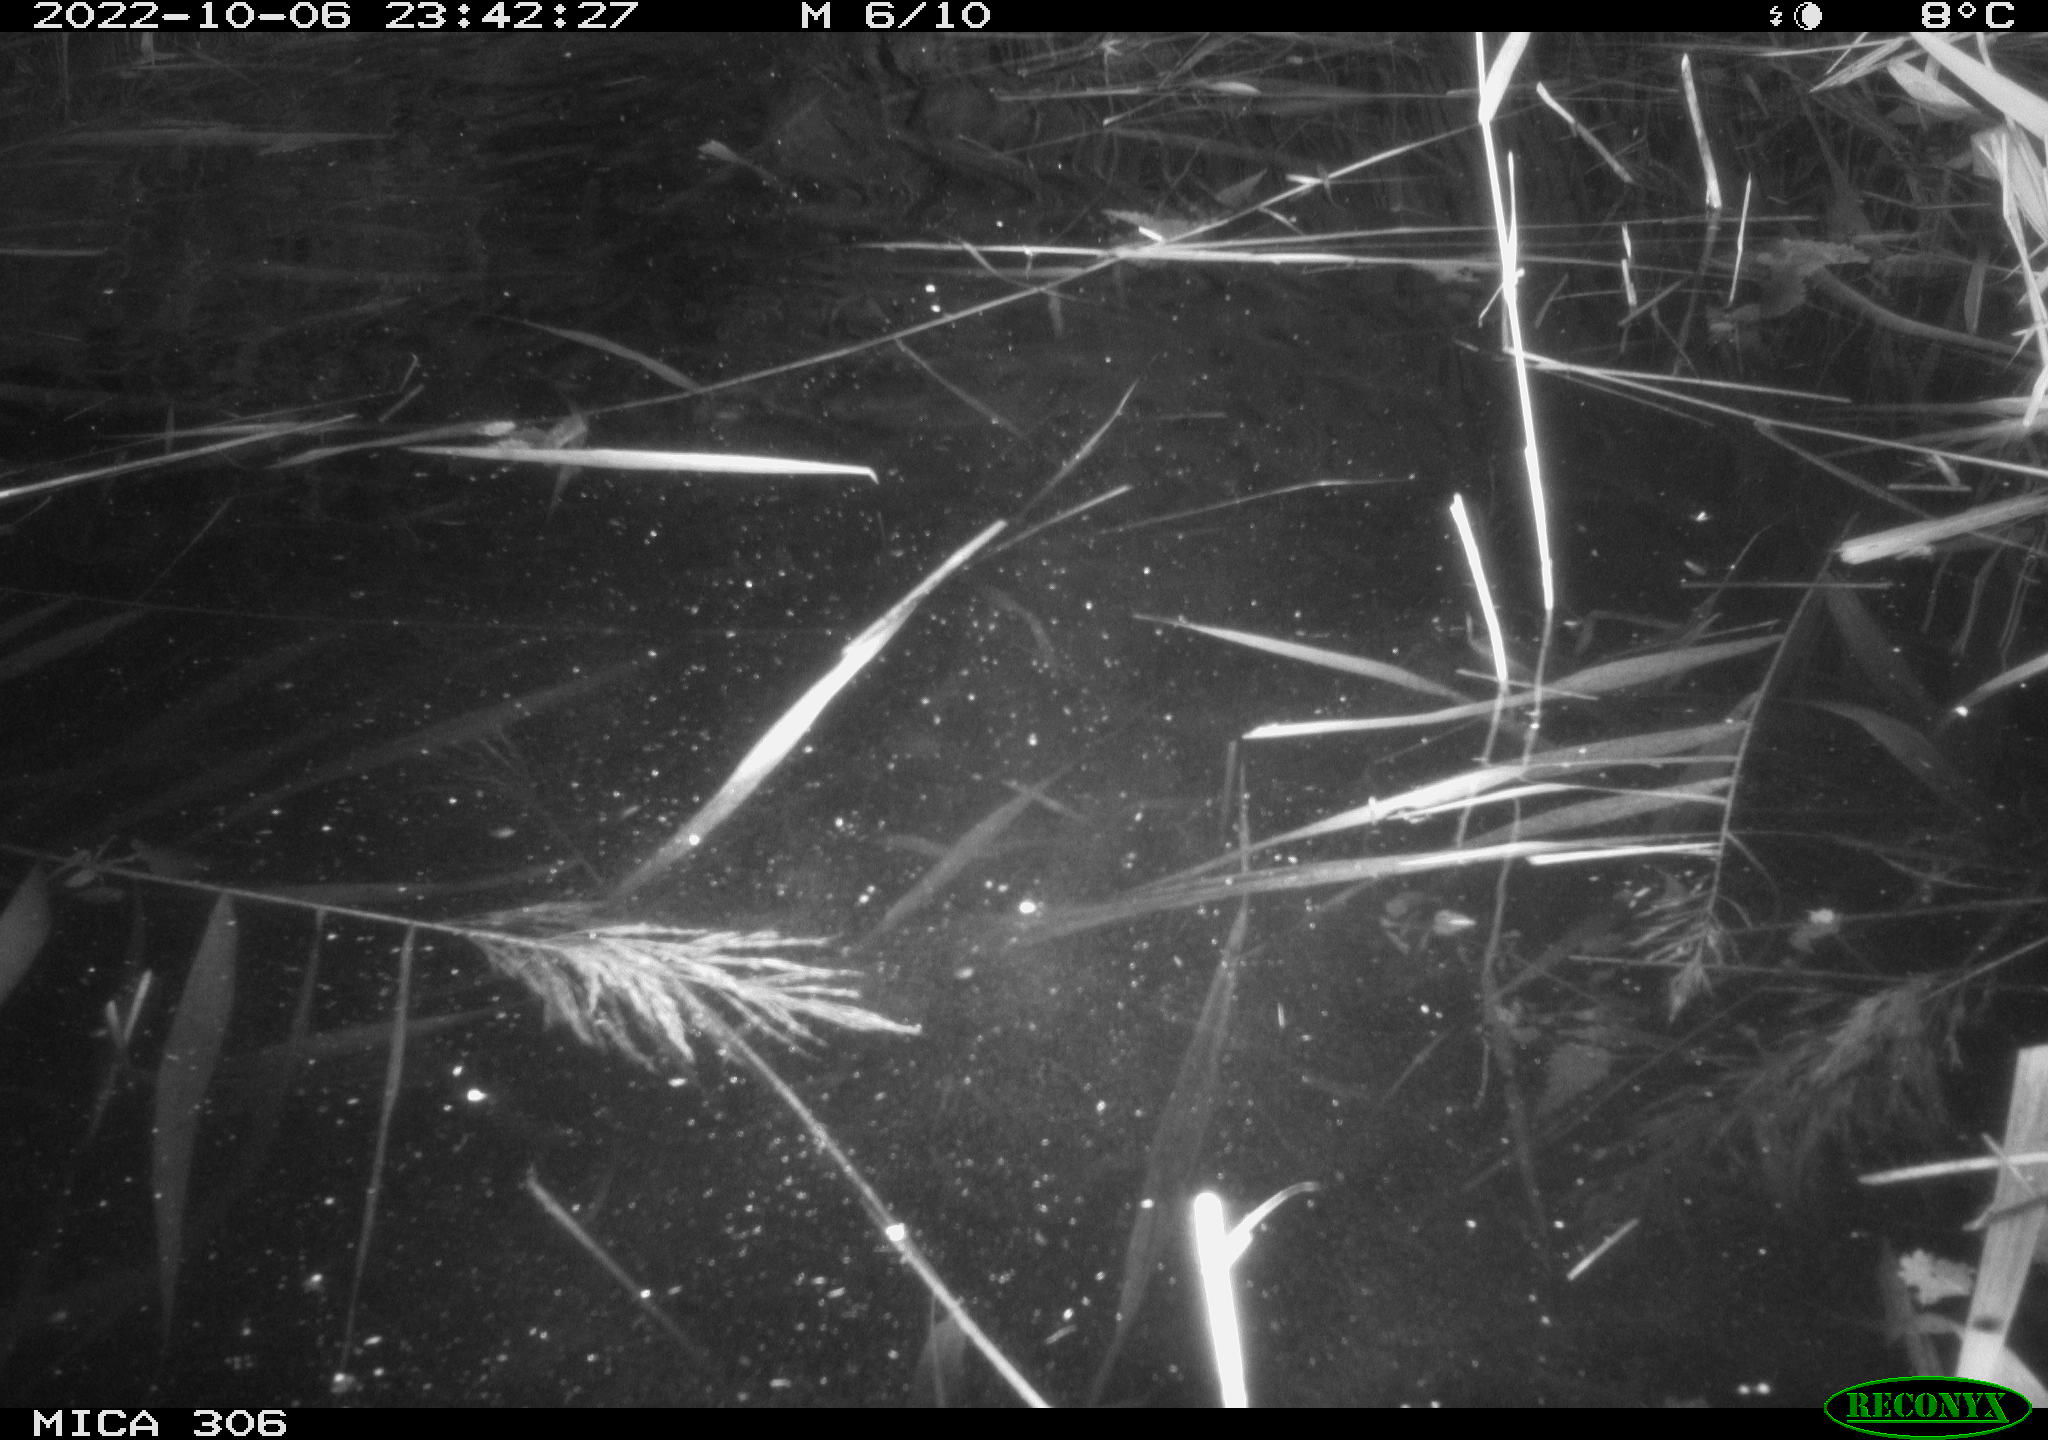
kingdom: Animalia
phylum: Chordata
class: Mammalia
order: Rodentia
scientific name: Rodentia
